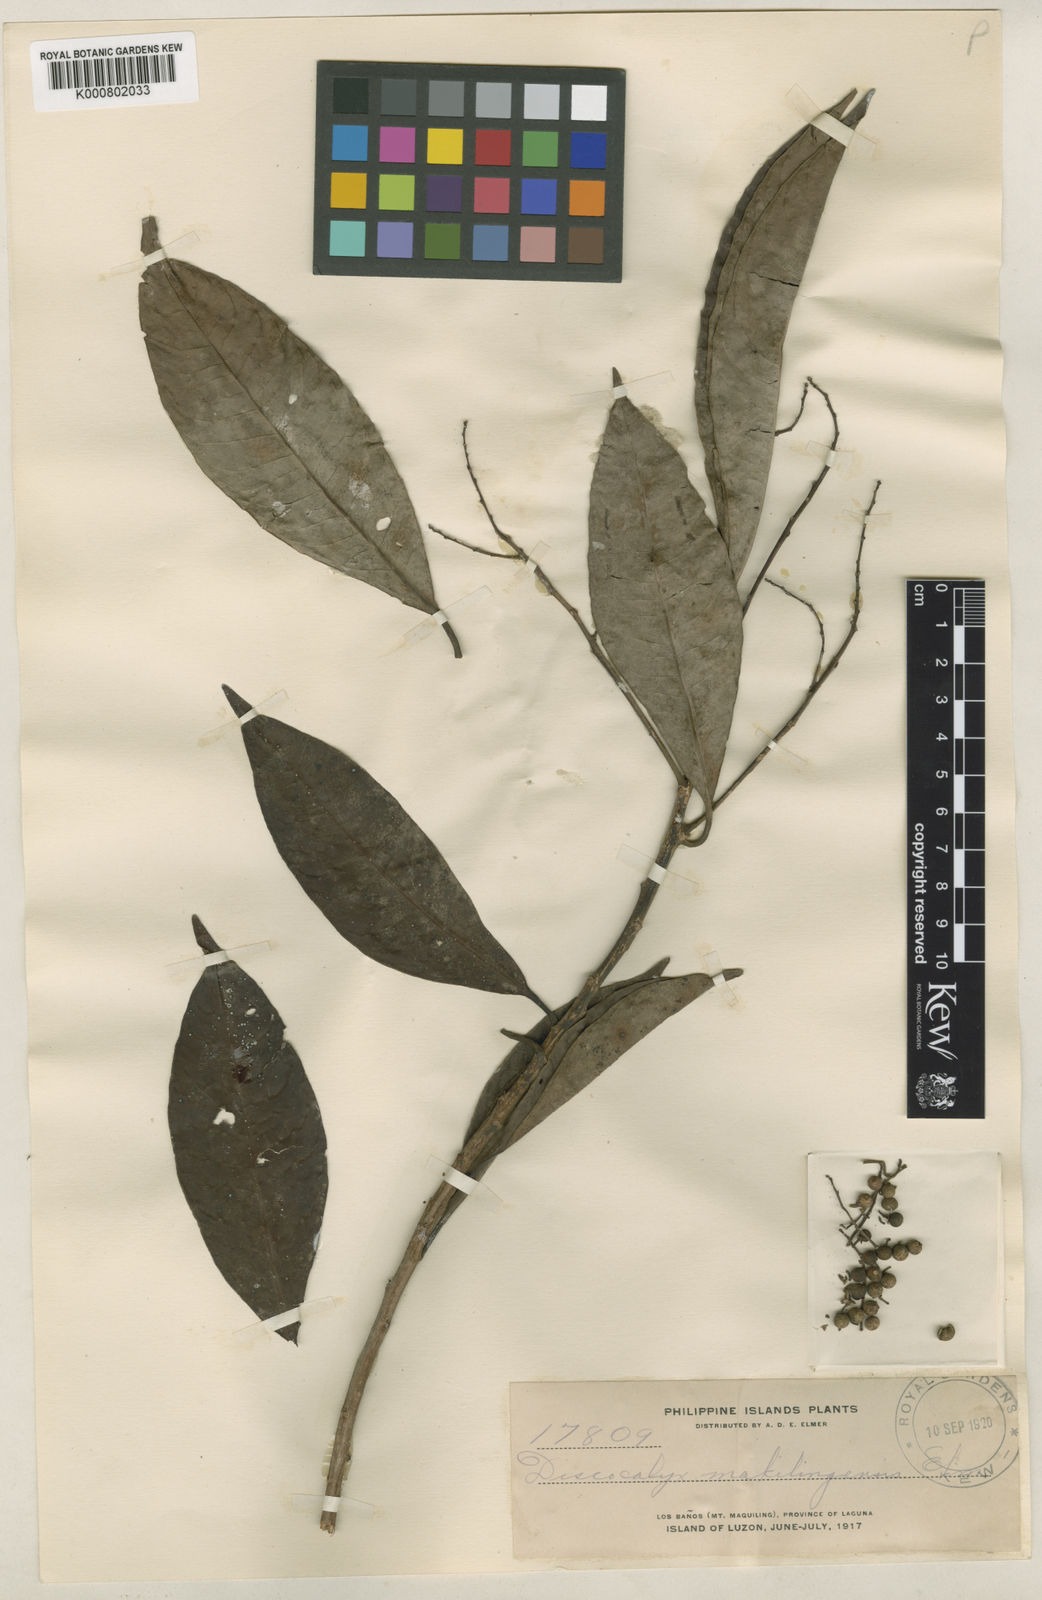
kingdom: Plantae
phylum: Tracheophyta
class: Magnoliopsida
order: Ericales
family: Primulaceae
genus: Discocalyx
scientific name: Discocalyx
